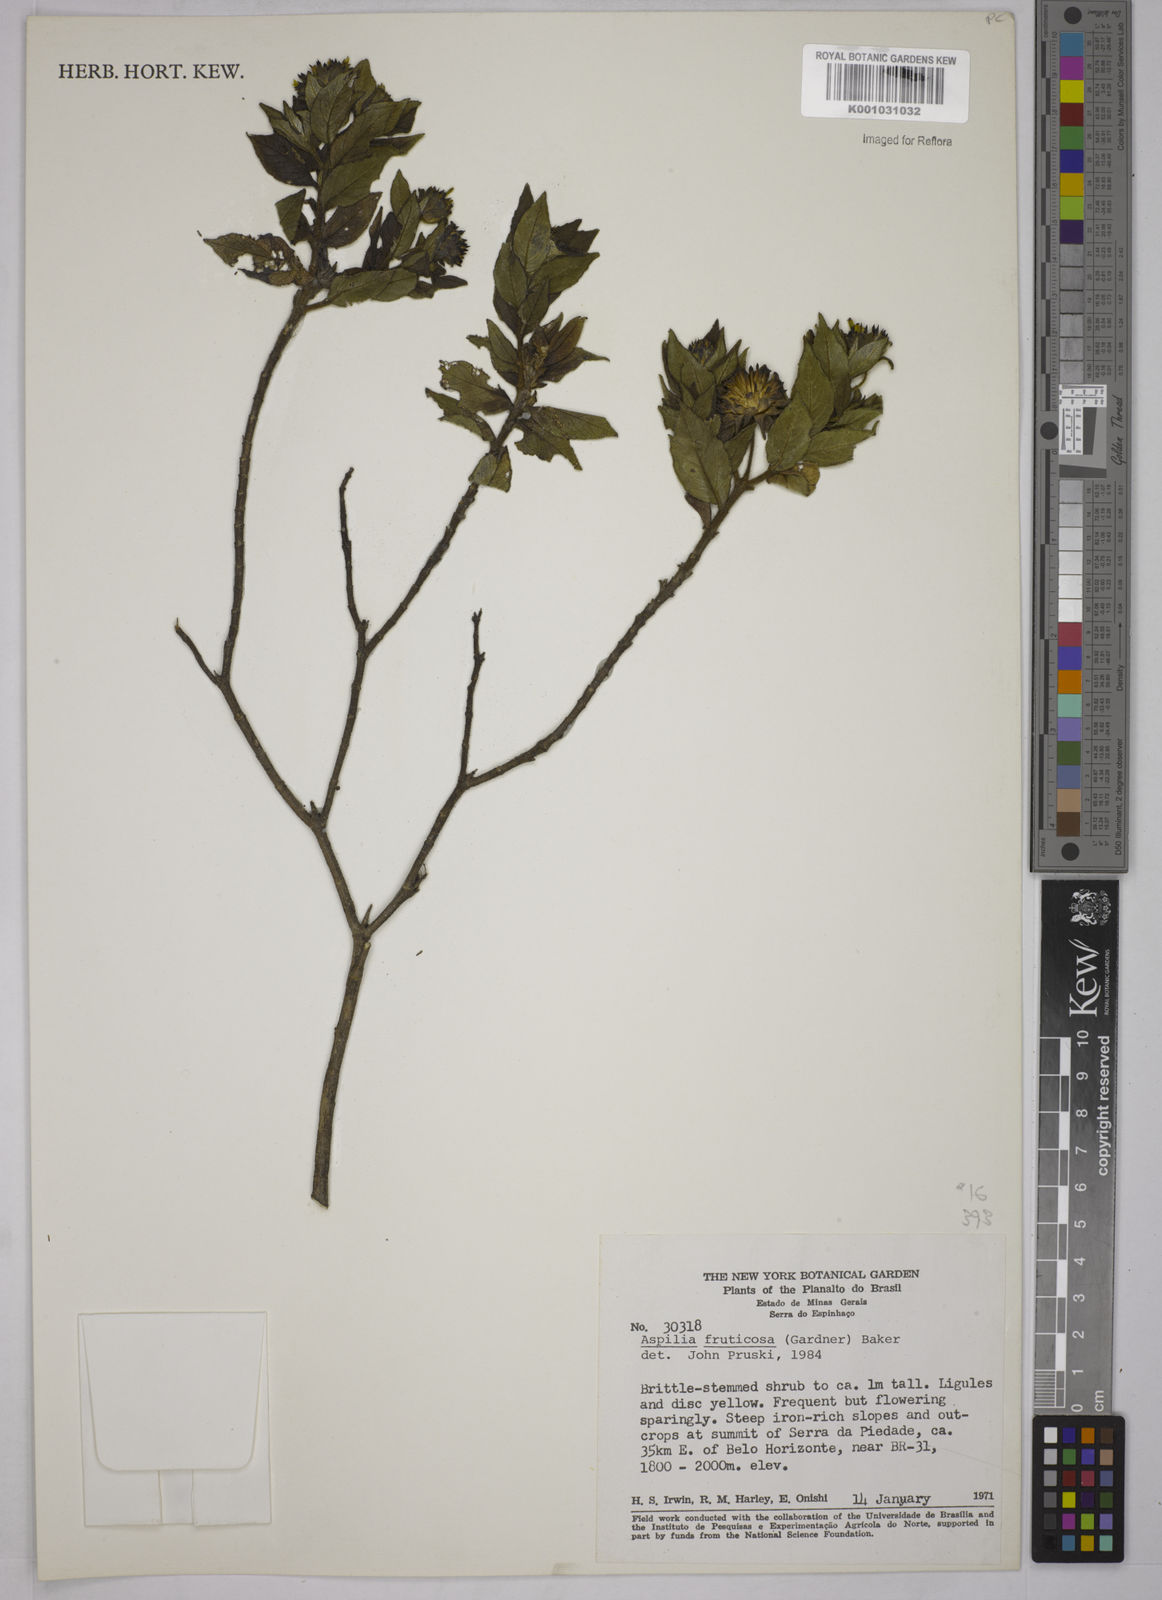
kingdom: Plantae
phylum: Tracheophyta
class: Magnoliopsida
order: Asterales
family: Asteraceae
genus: Wedelia
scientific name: Wedelia frustrata
